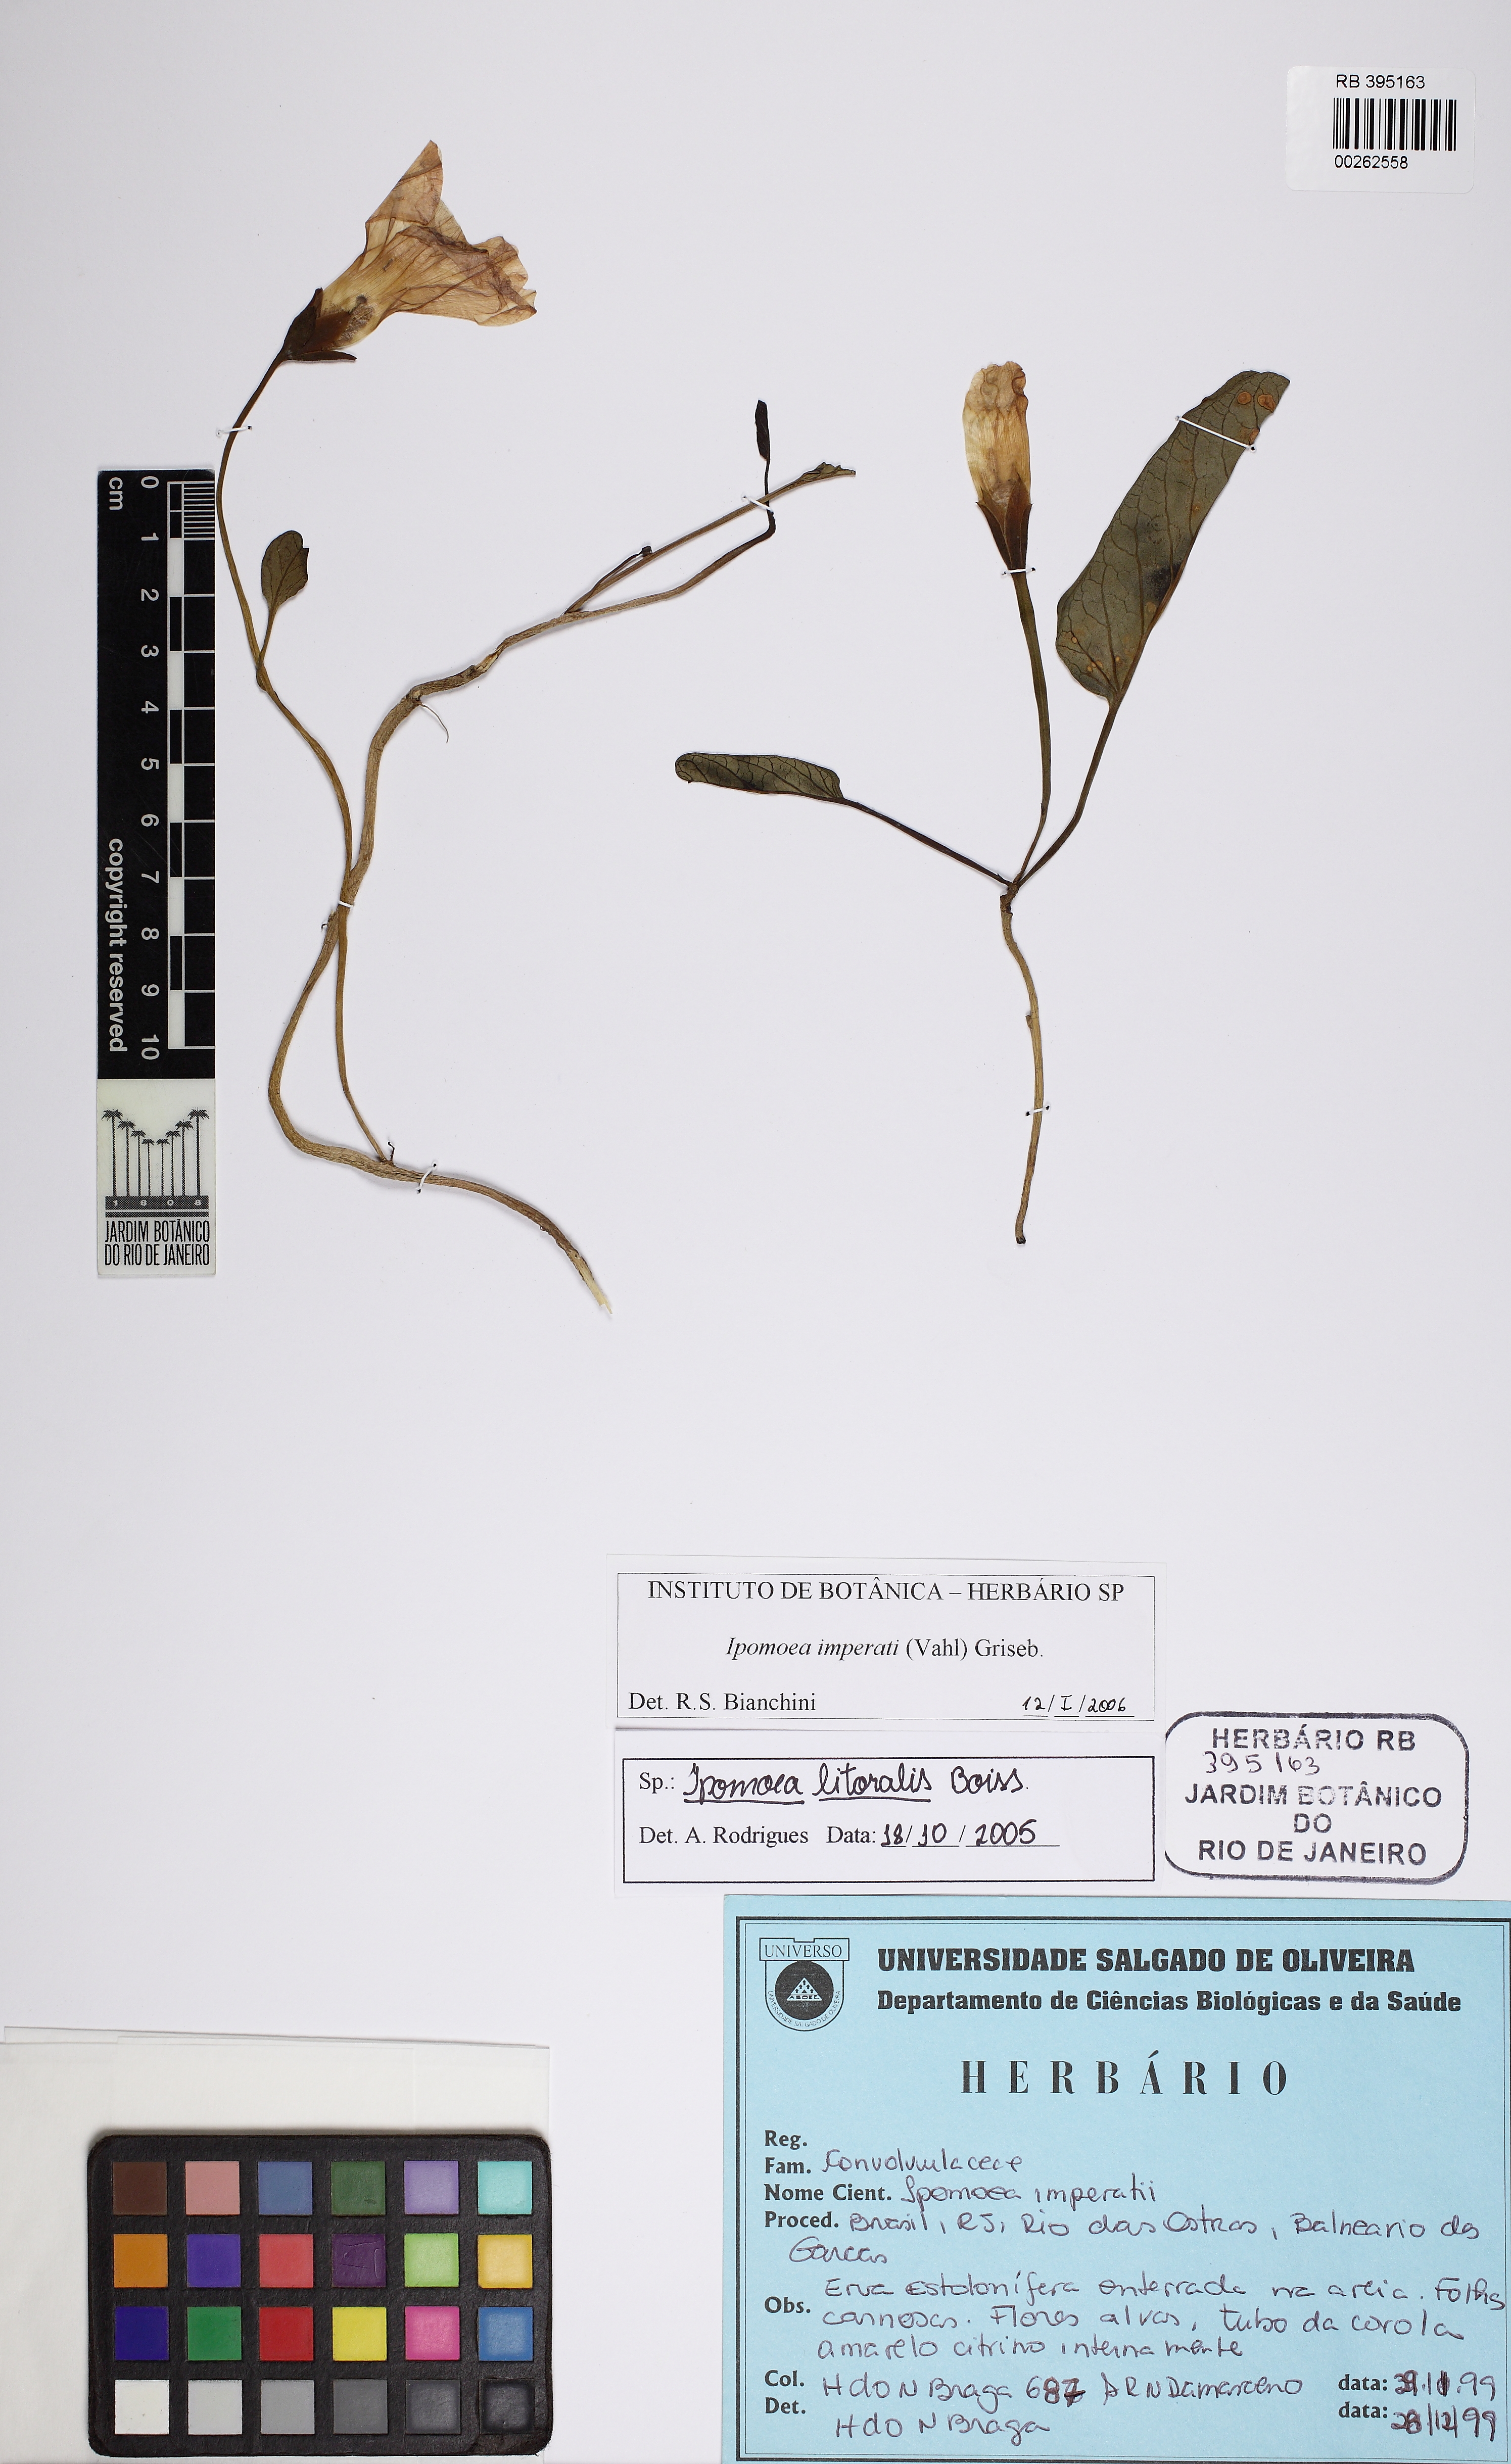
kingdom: Plantae
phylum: Tracheophyta
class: Magnoliopsida
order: Solanales
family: Convolvulaceae
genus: Ipomoea
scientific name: Ipomoea imperati
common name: Fiddle-leaf morning-glory
